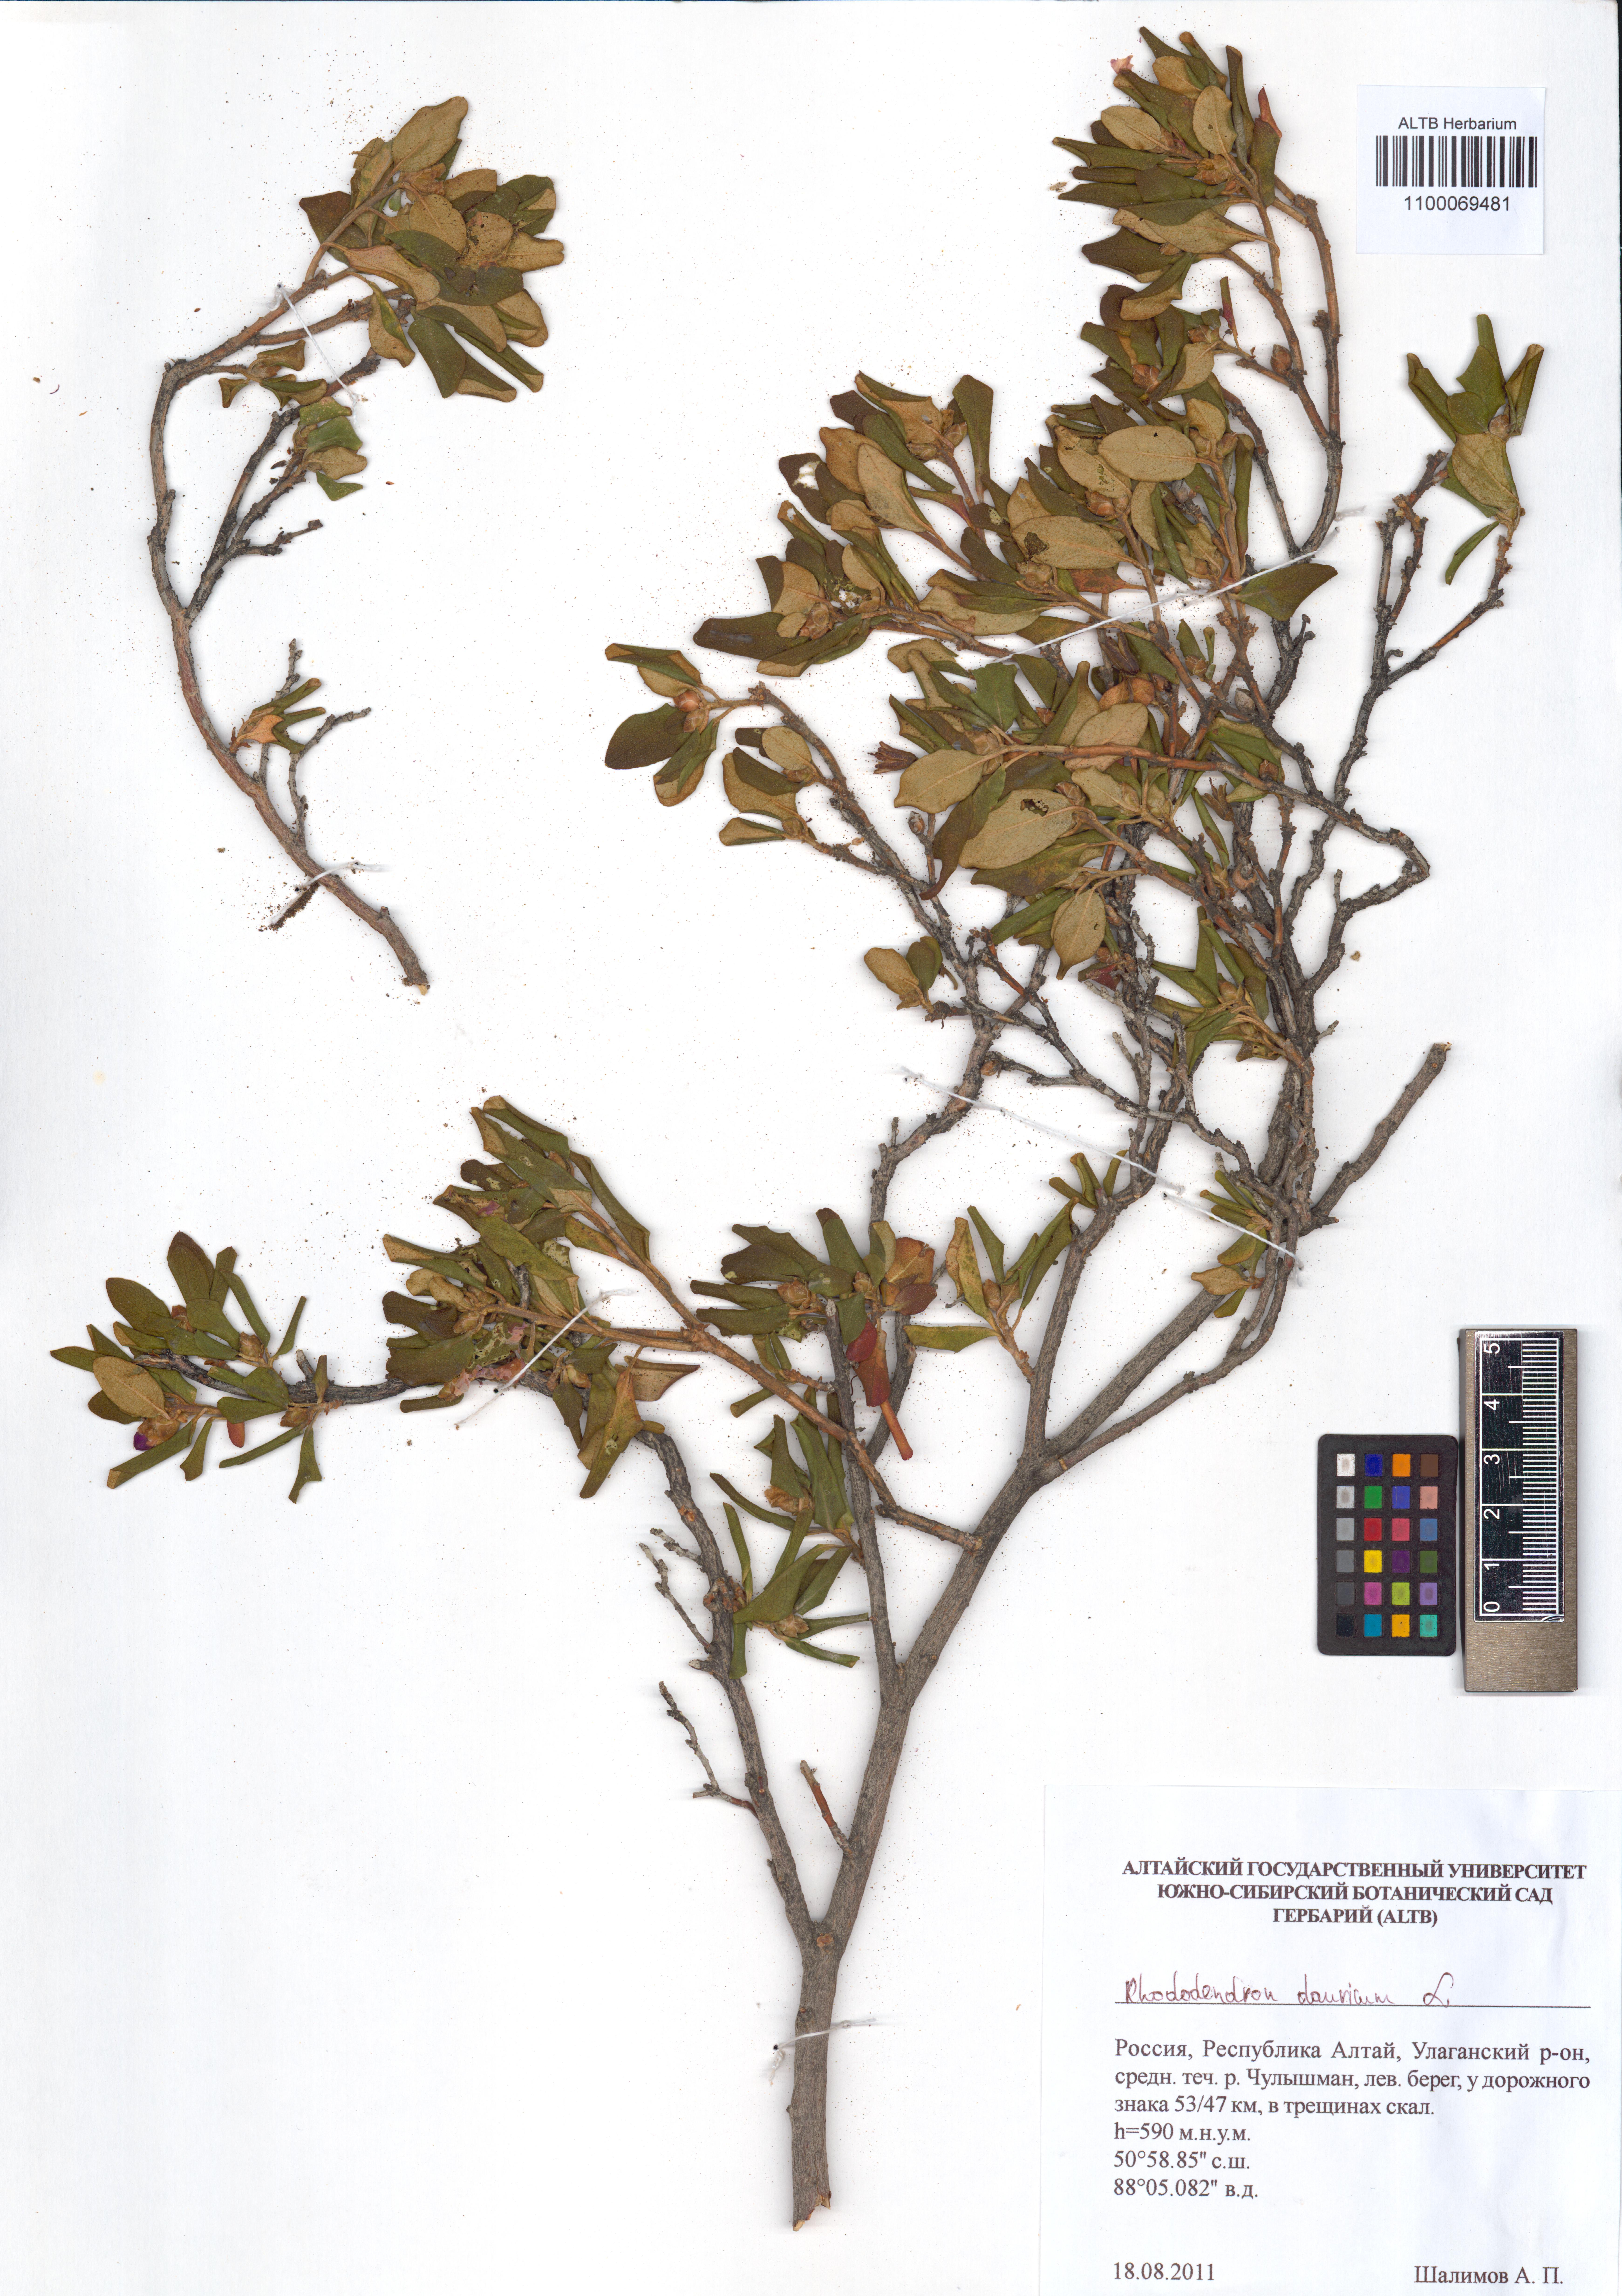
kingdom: Plantae
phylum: Tracheophyta
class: Magnoliopsida
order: Ericales
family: Ericaceae
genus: Rhododendron
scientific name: Rhododendron dauricum
